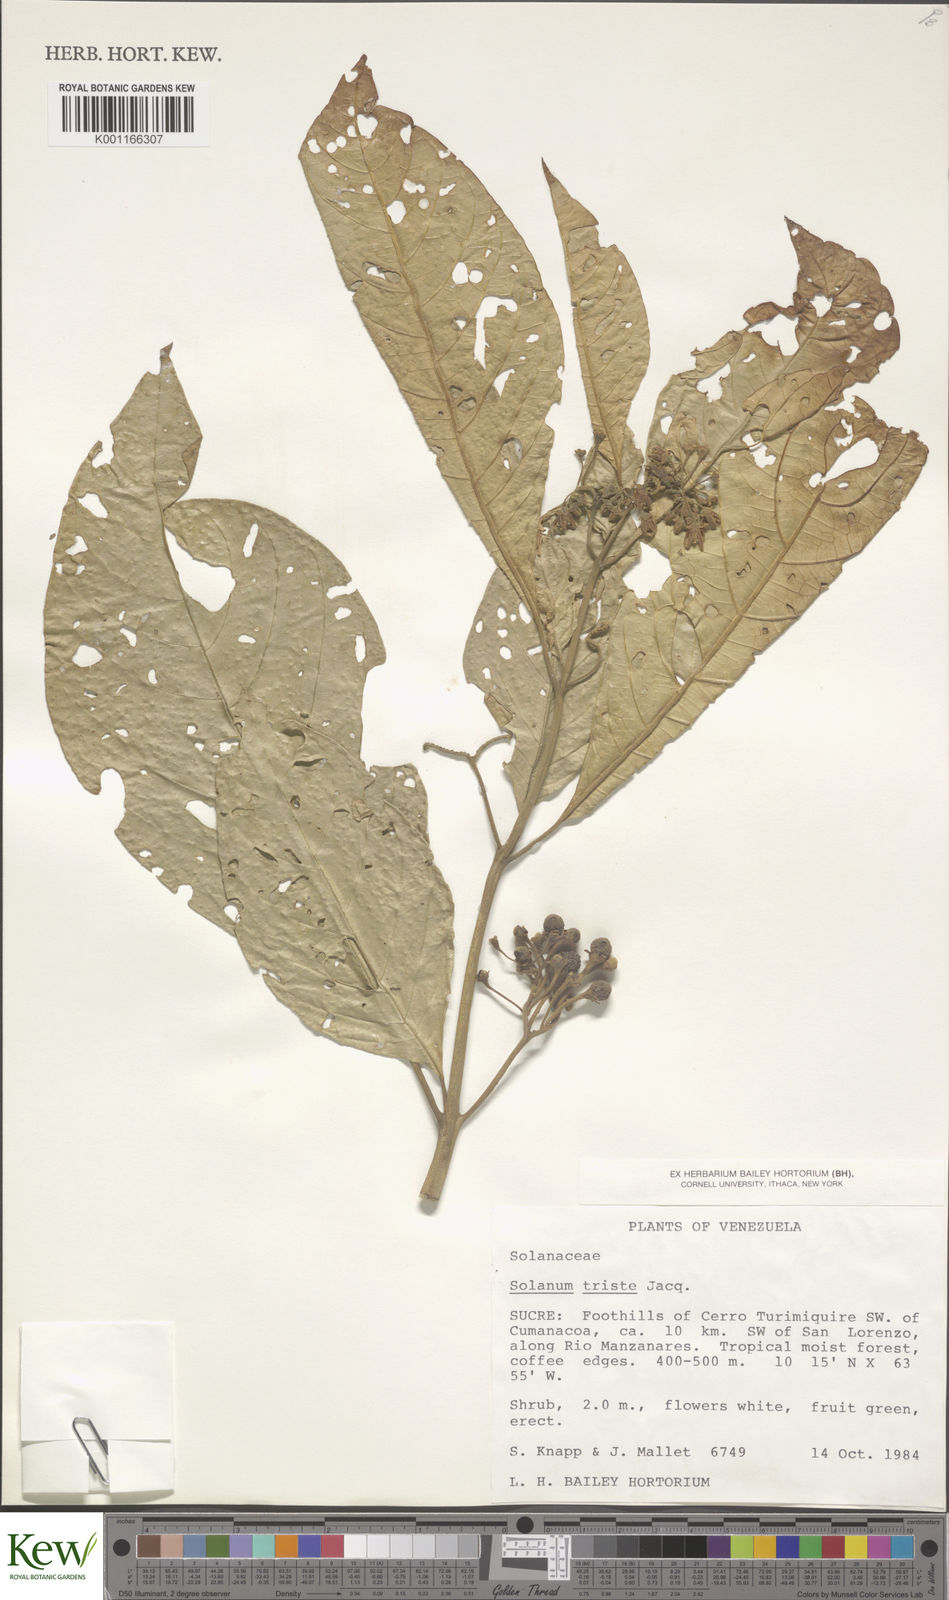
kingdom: Plantae
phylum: Tracheophyta
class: Magnoliopsida
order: Solanales
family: Solanaceae
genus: Solanum
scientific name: Solanum triste
